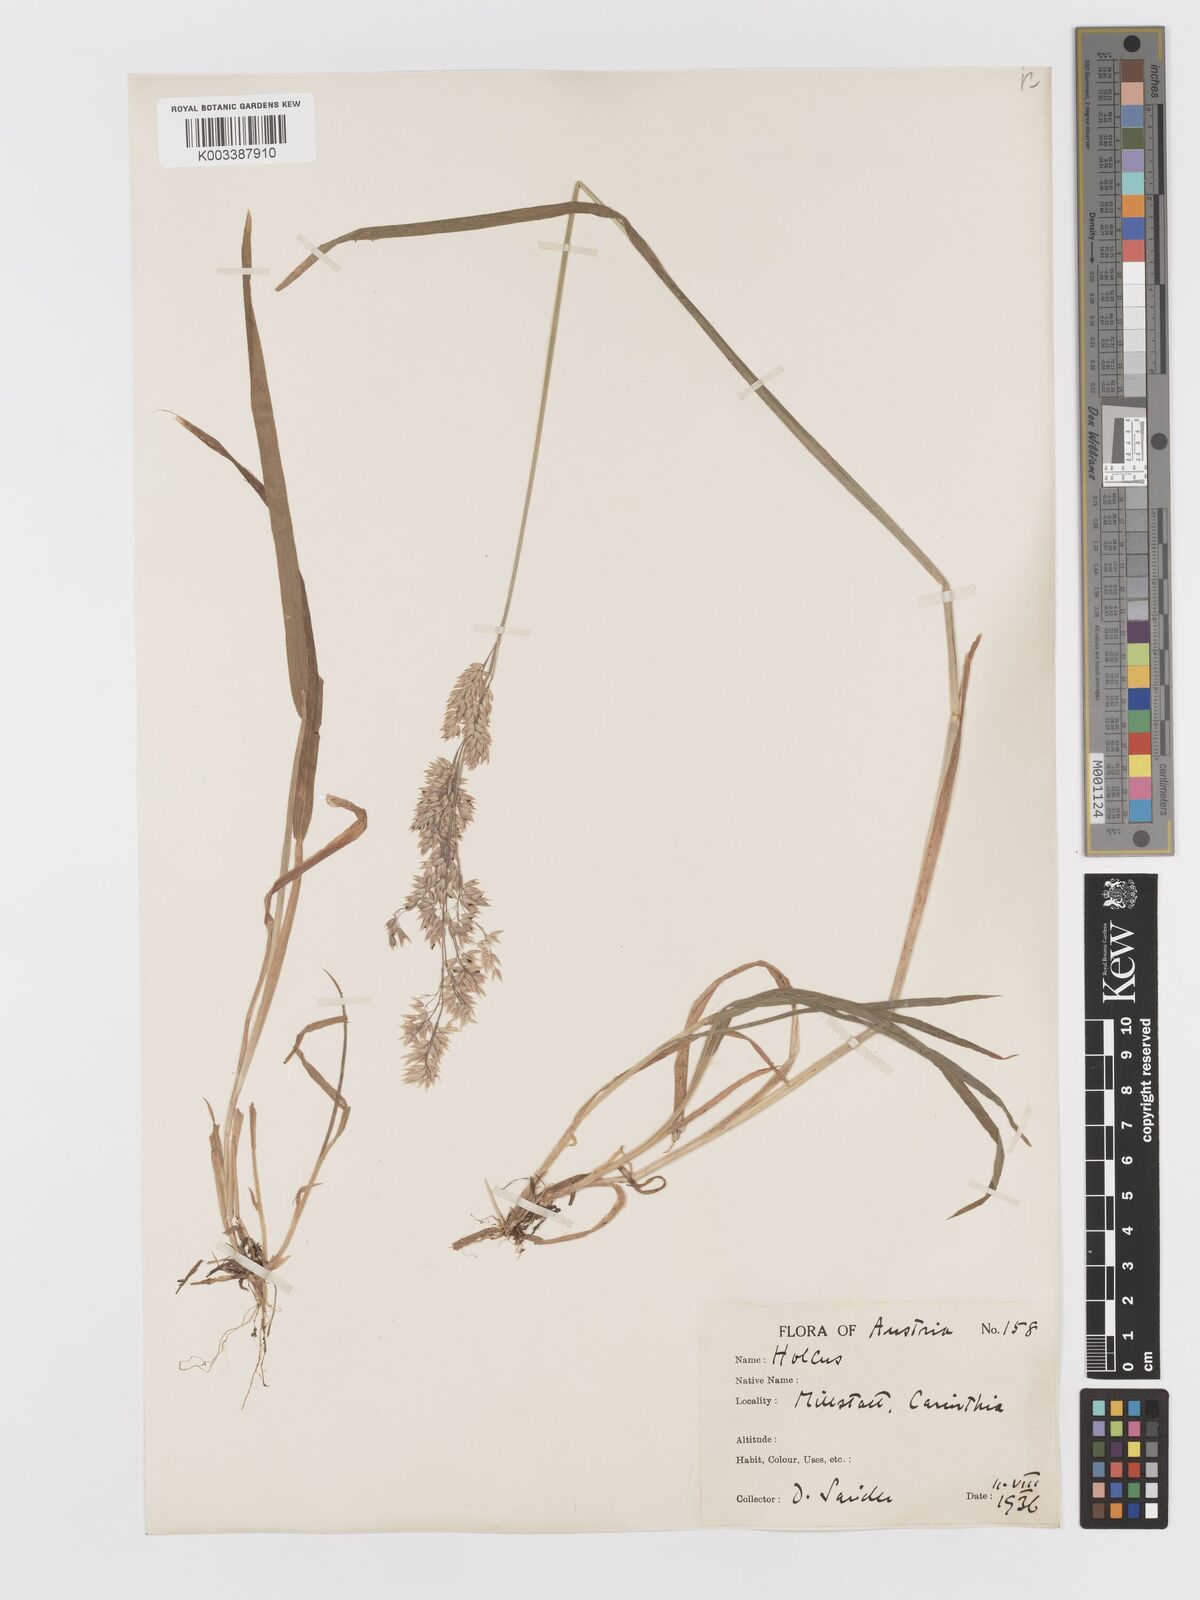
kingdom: Plantae
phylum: Tracheophyta
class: Liliopsida
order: Poales
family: Poaceae
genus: Holcus
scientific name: Holcus lanatus
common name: Yorkshire-fog
